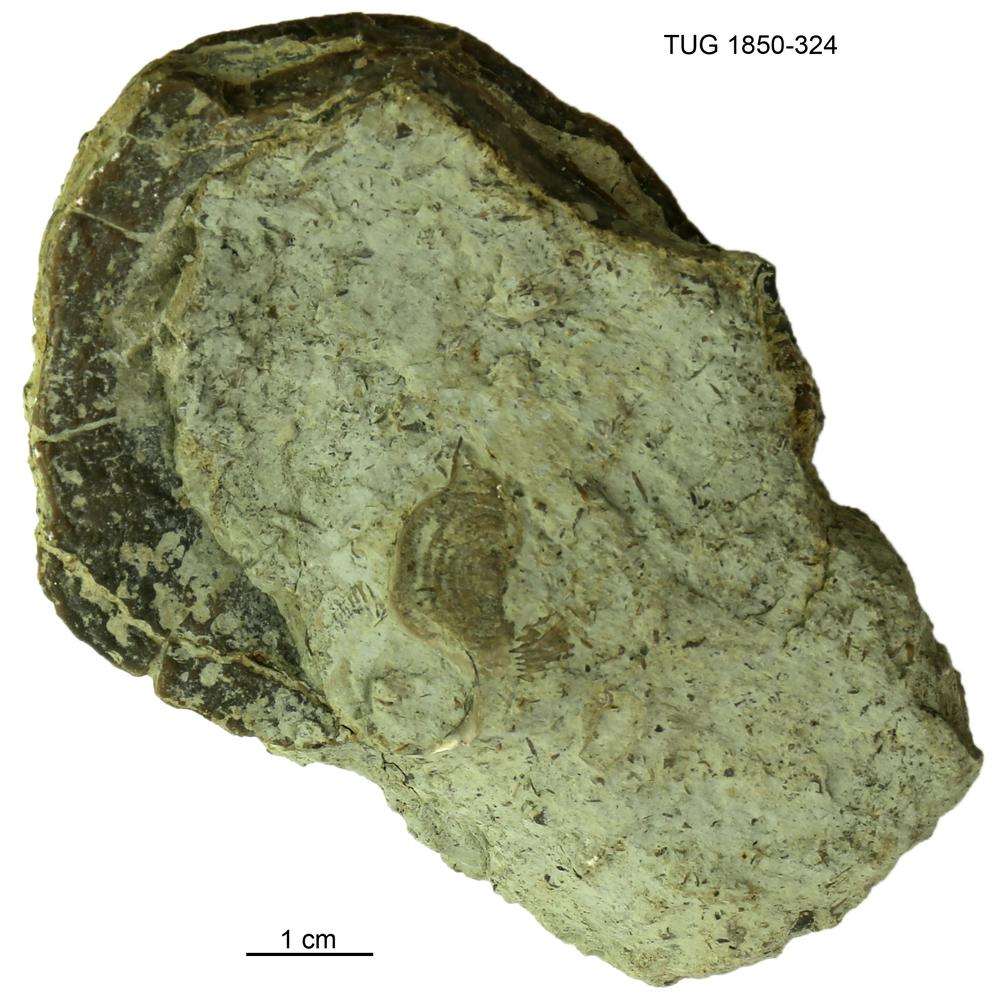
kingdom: Animalia
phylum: Porifera
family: Pseudolabechiidae
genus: Pseudolabechia
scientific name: Pseudolabechia
